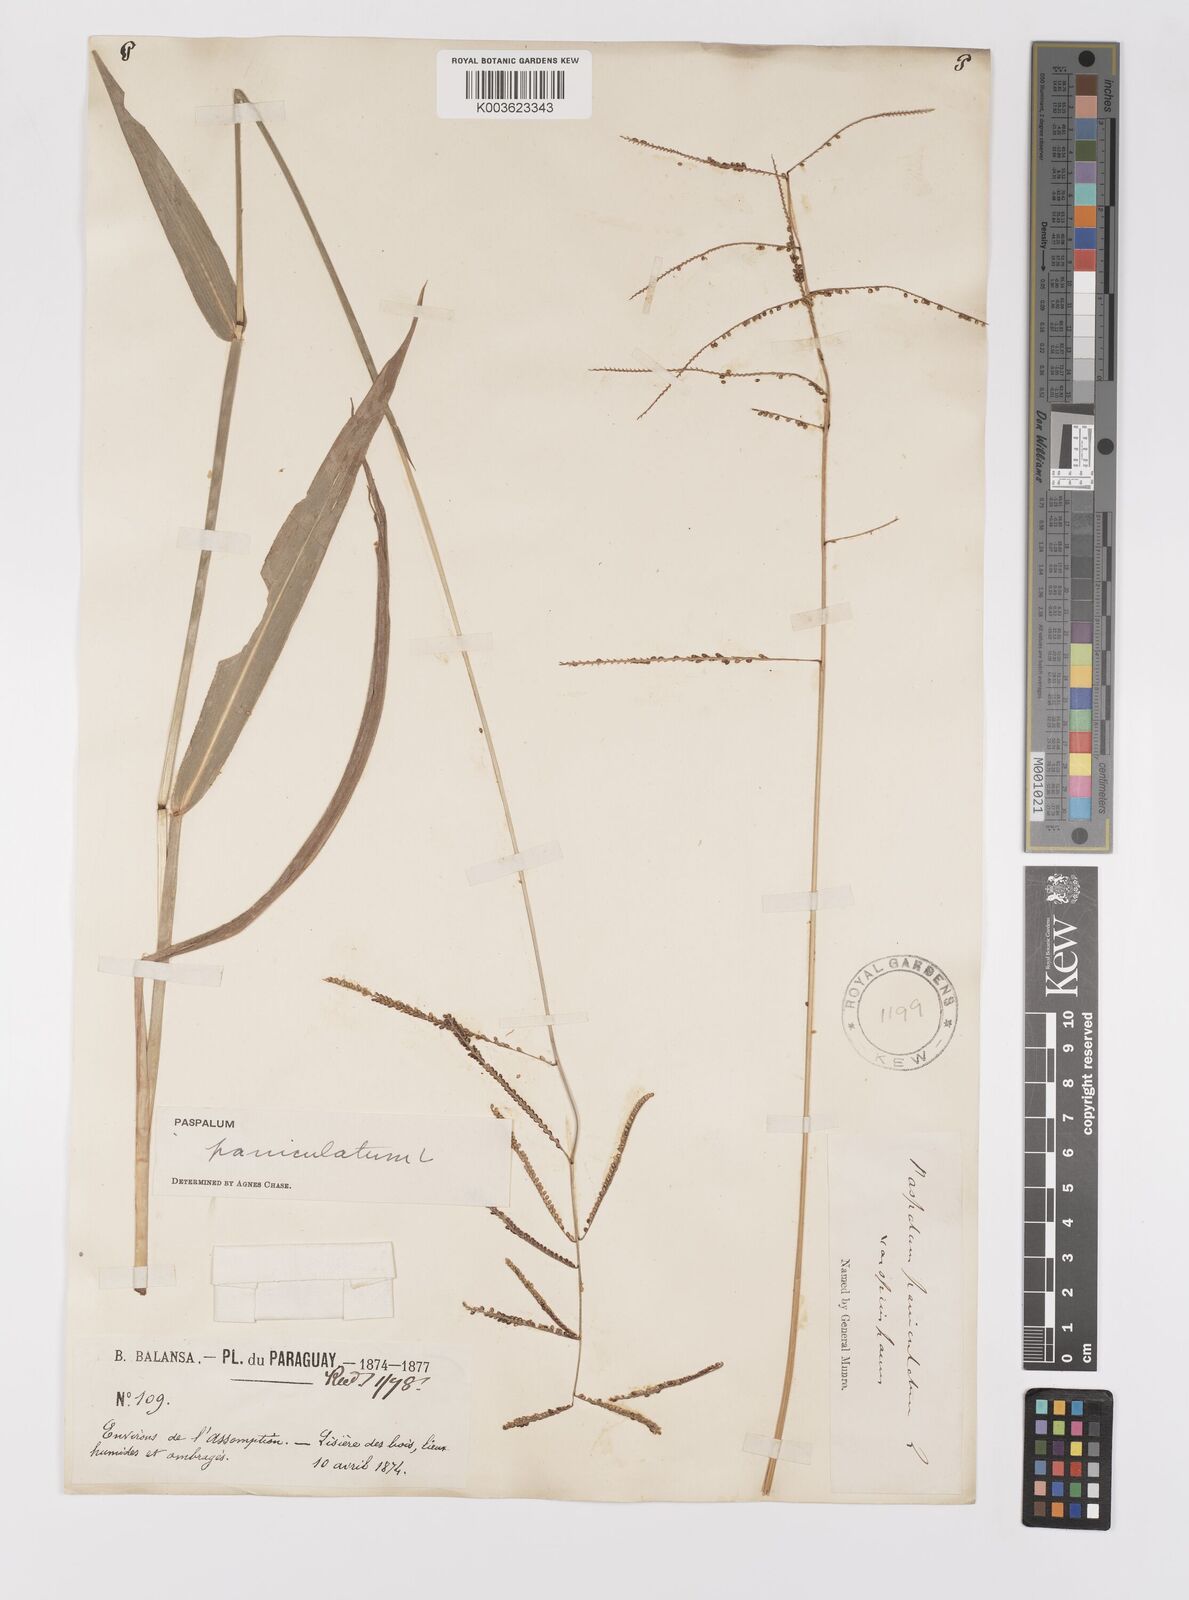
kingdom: Plantae
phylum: Tracheophyta
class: Liliopsida
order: Poales
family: Poaceae
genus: Paspalum
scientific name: Paspalum paniculatum
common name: Arrocillo
